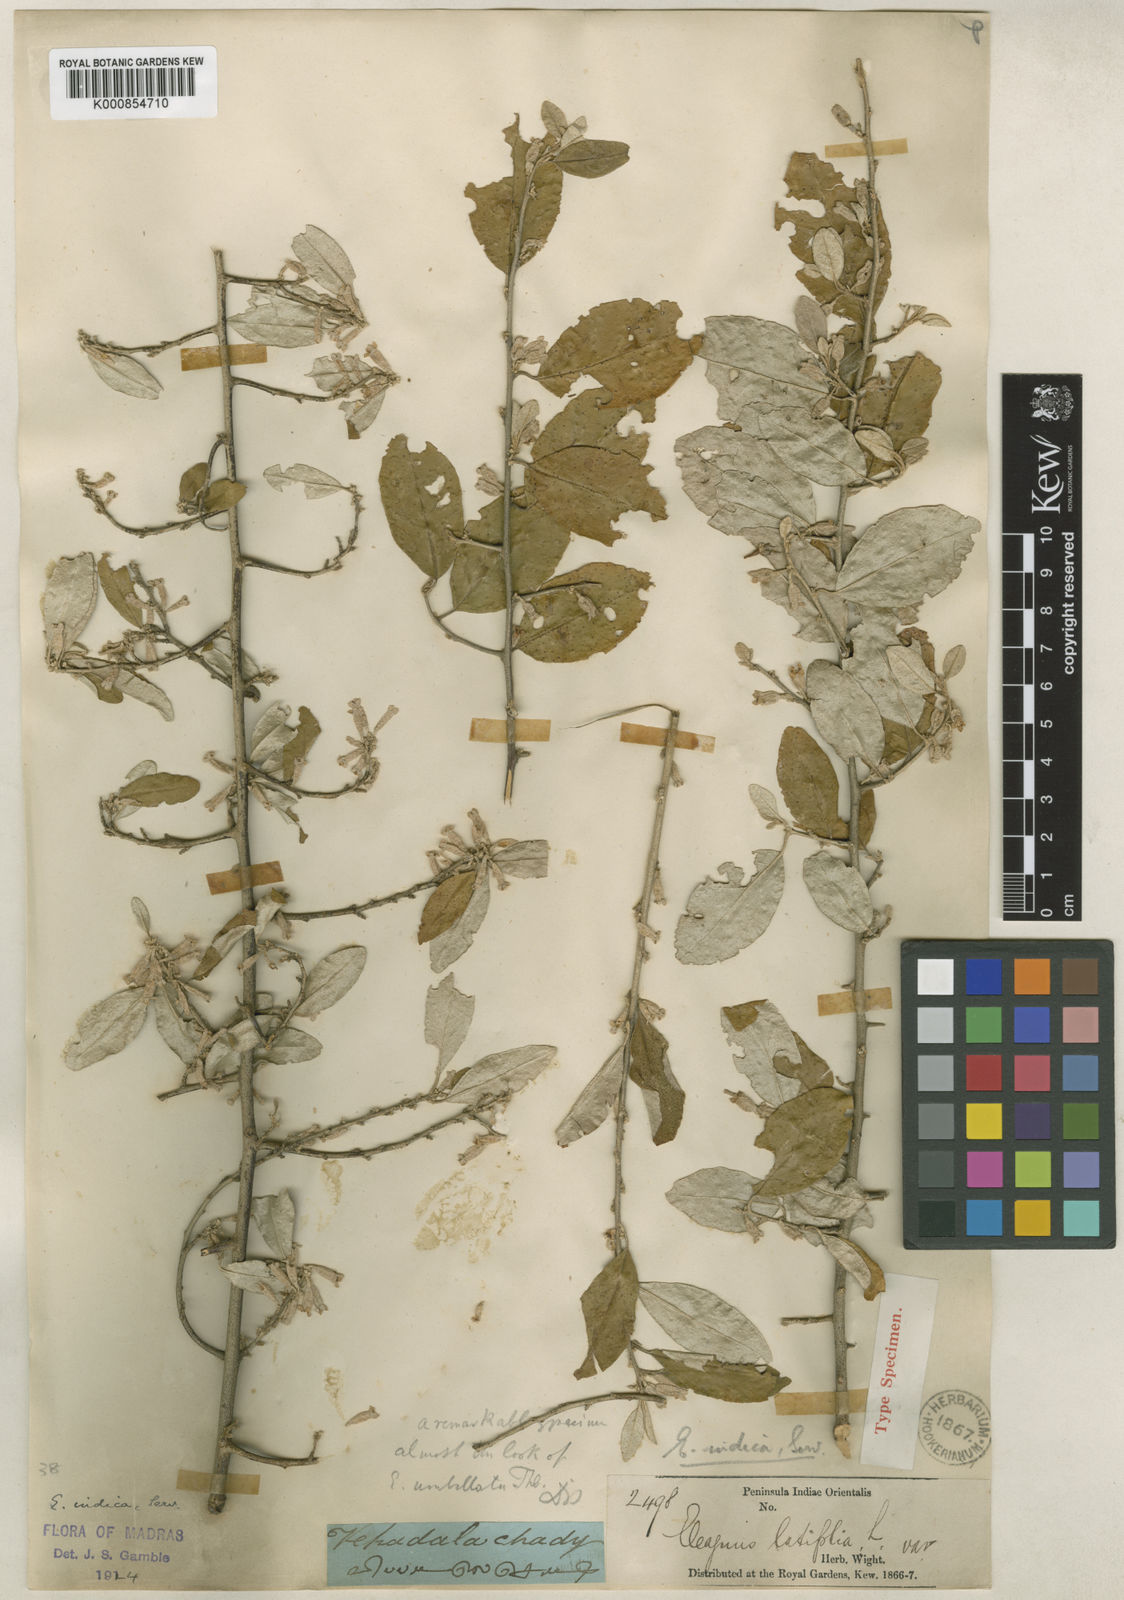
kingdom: Plantae
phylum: Tracheophyta
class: Magnoliopsida
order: Rosales
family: Elaeagnaceae
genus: Elaeagnus
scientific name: Elaeagnus latifolia
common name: Oleaster
